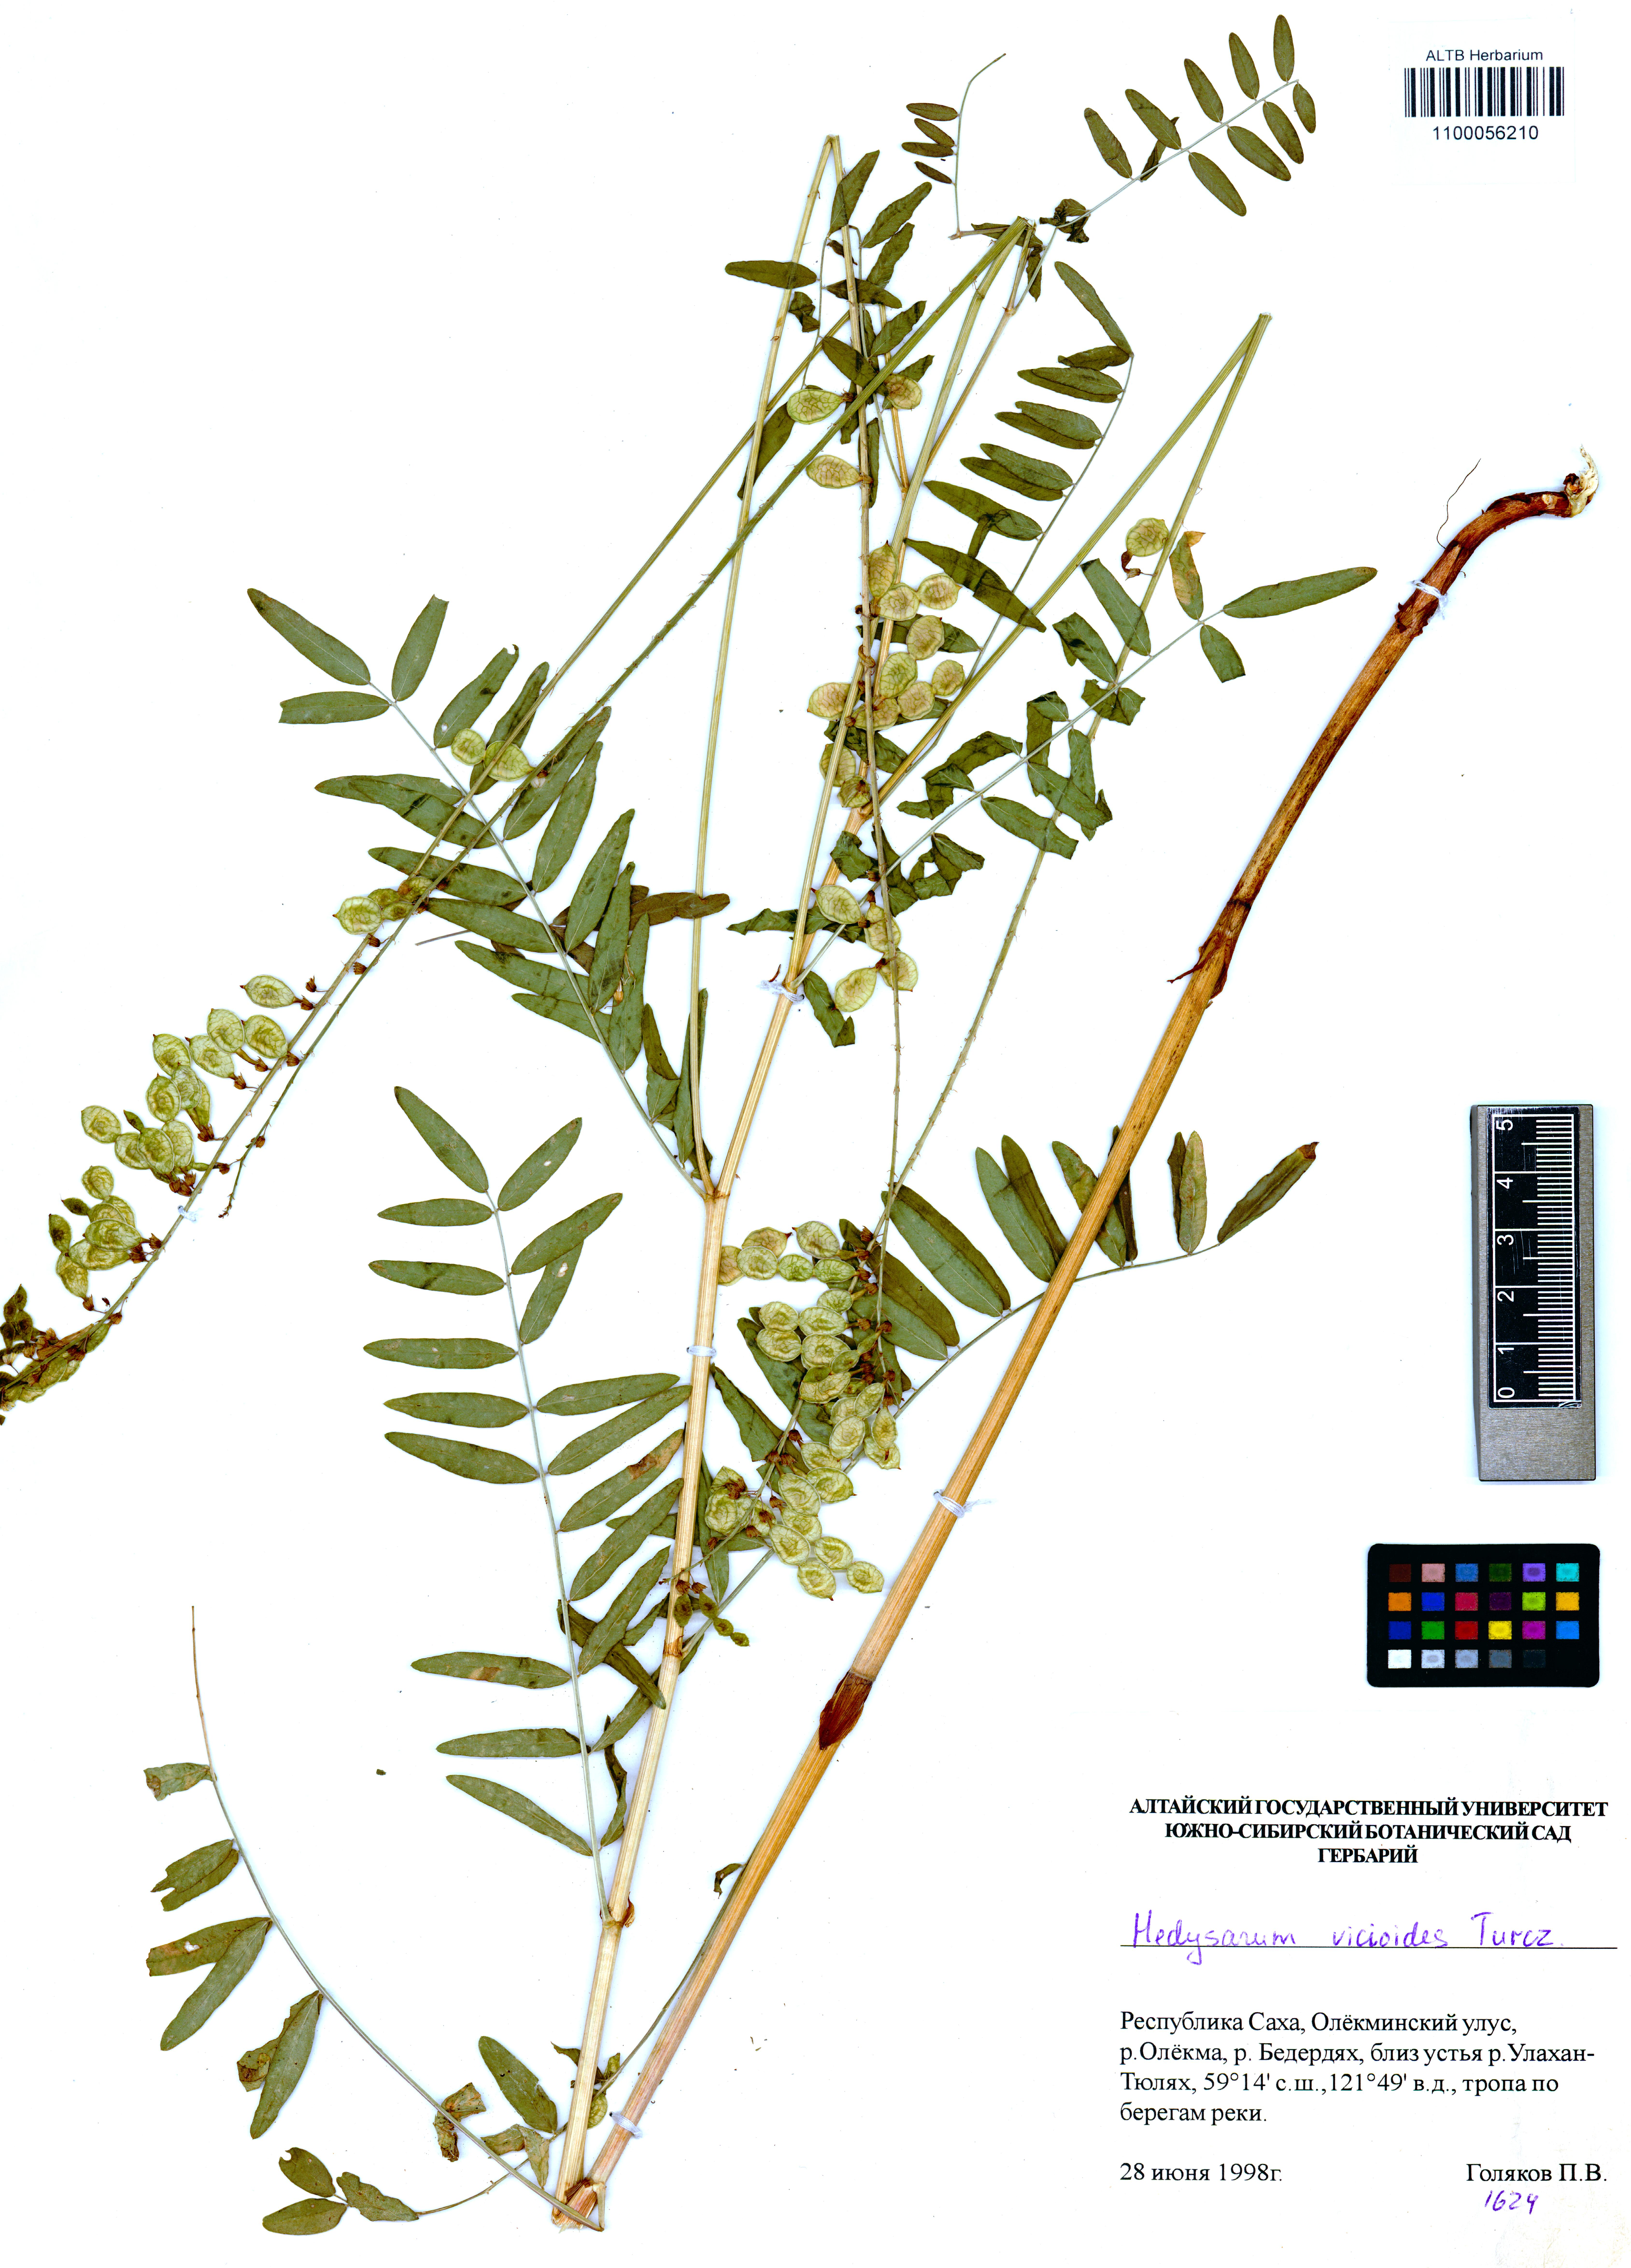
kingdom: Plantae
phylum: Tracheophyta
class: Magnoliopsida
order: Fabales
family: Fabaceae
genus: Hedysarum
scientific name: Hedysarum vicioides
